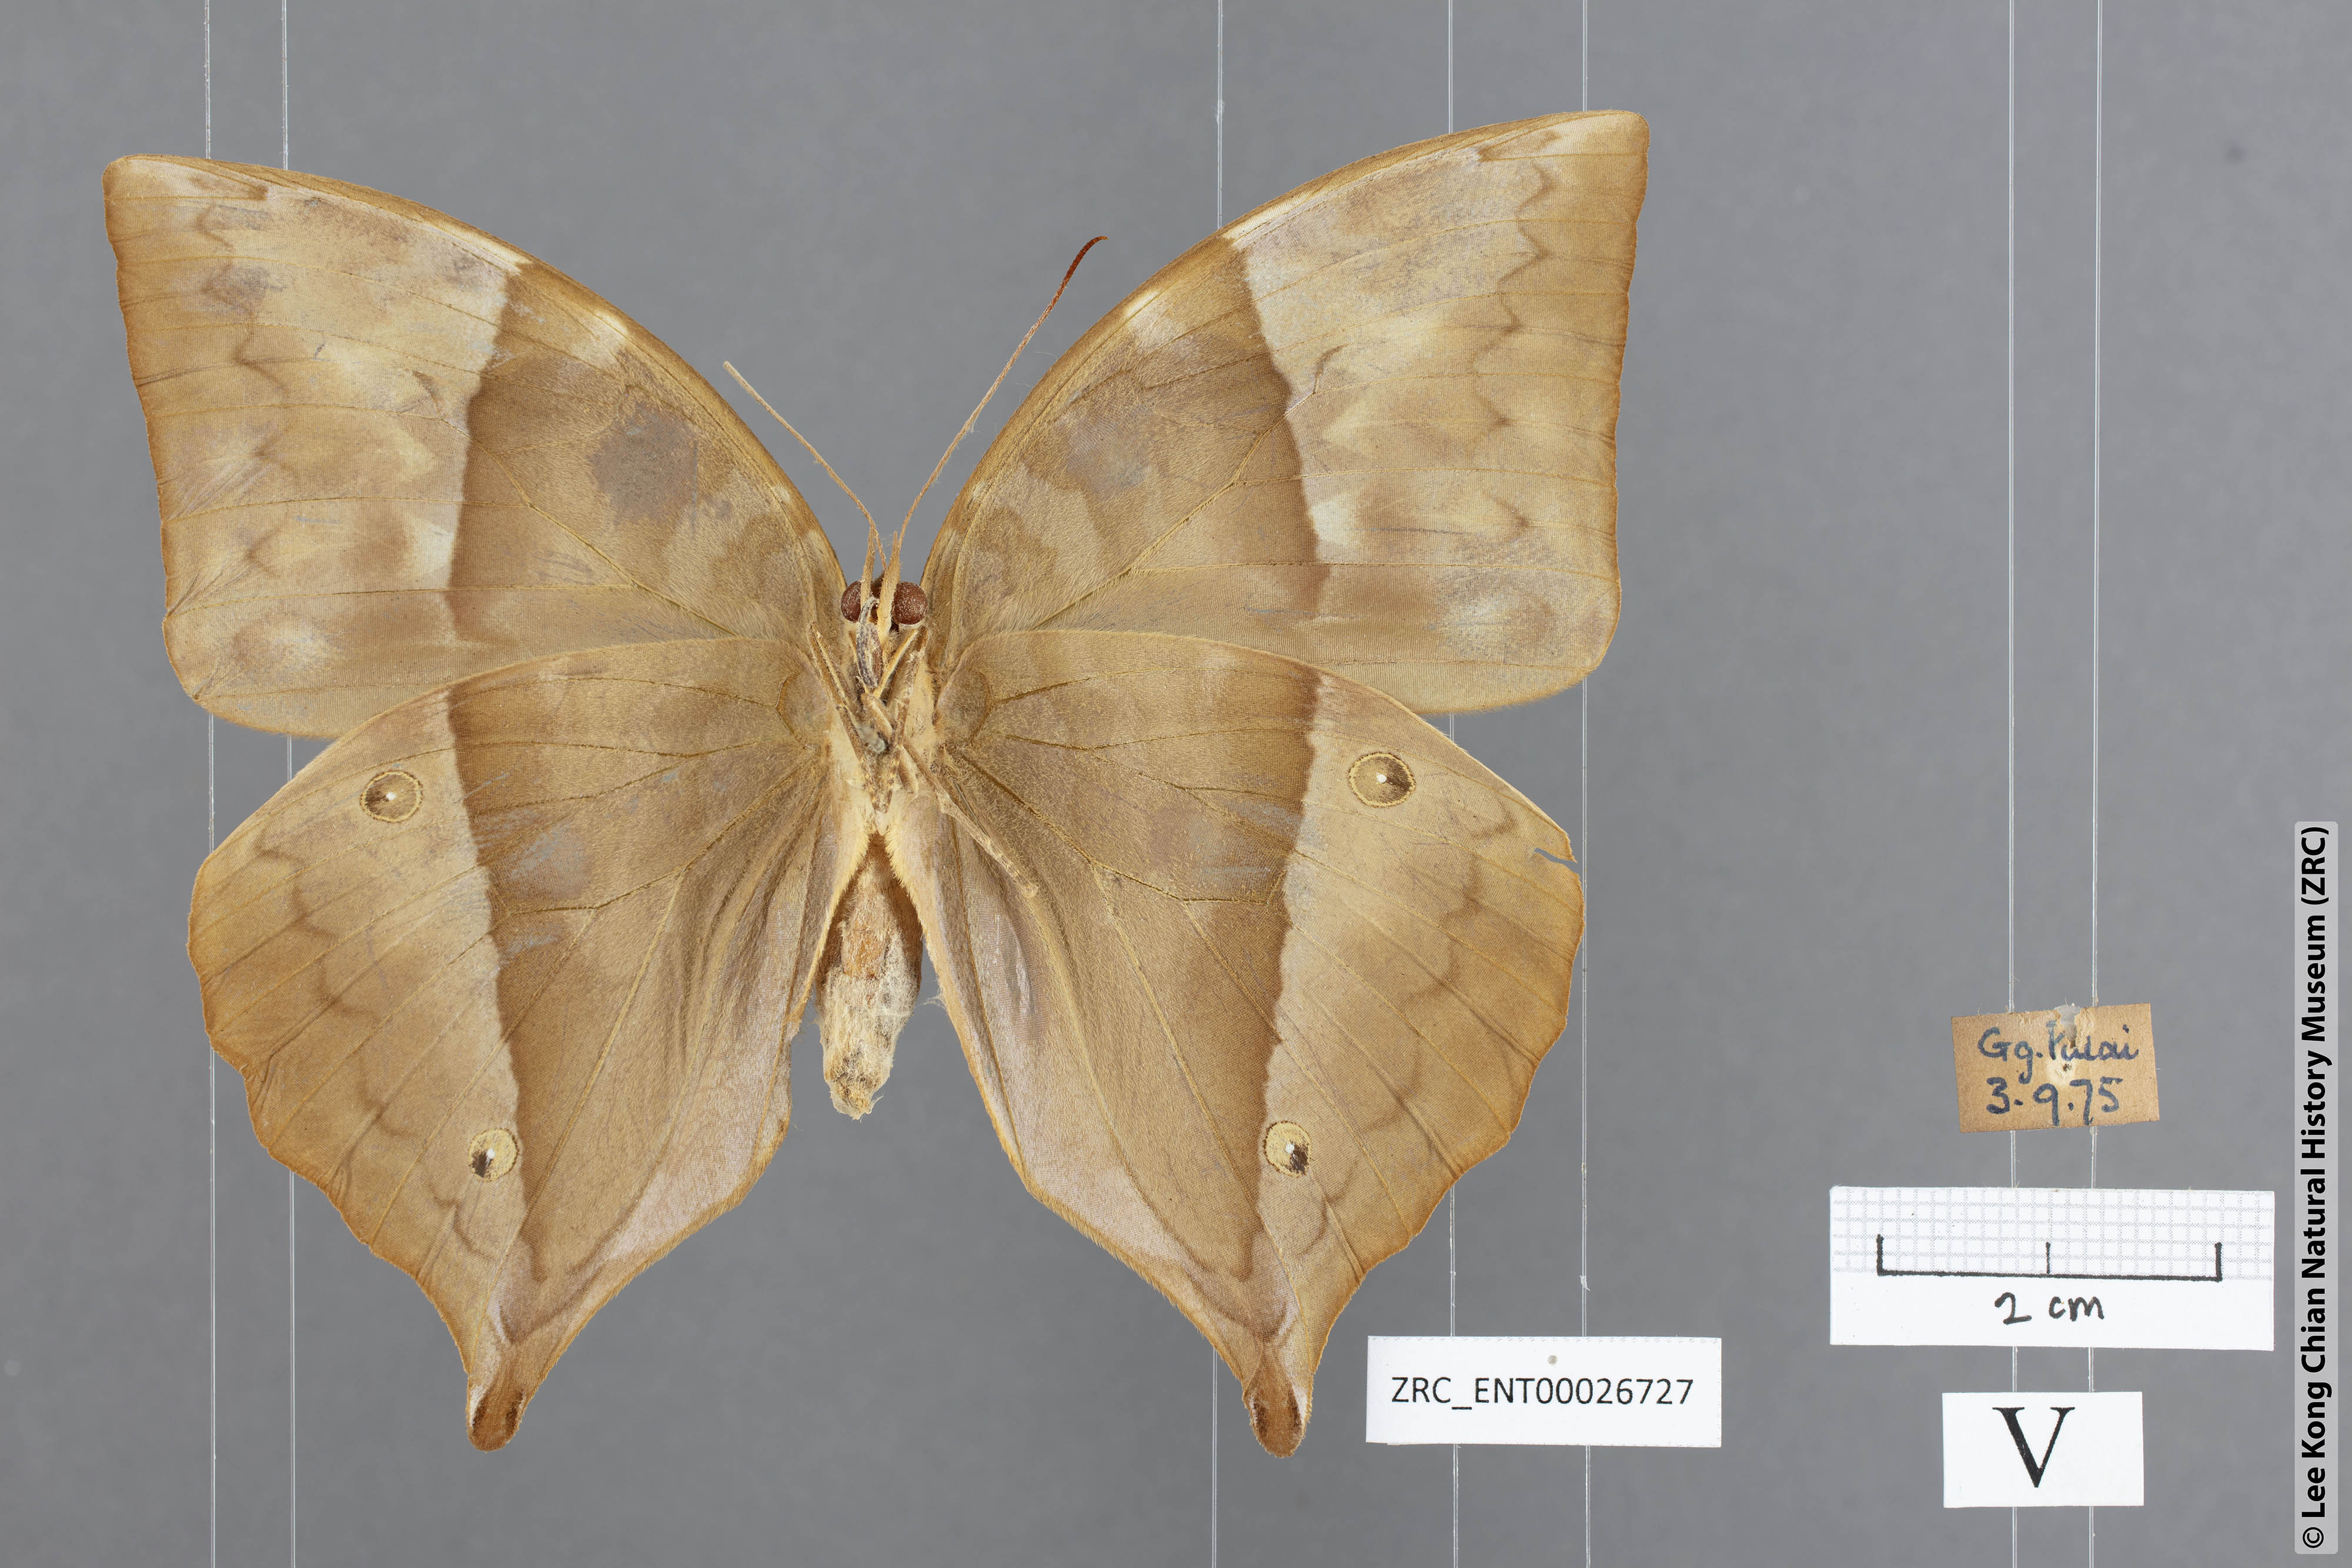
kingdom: Animalia
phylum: Arthropoda
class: Insecta
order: Lepidoptera
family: Nymphalidae
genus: Zeuxidia
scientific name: Zeuxidia doubledaii
